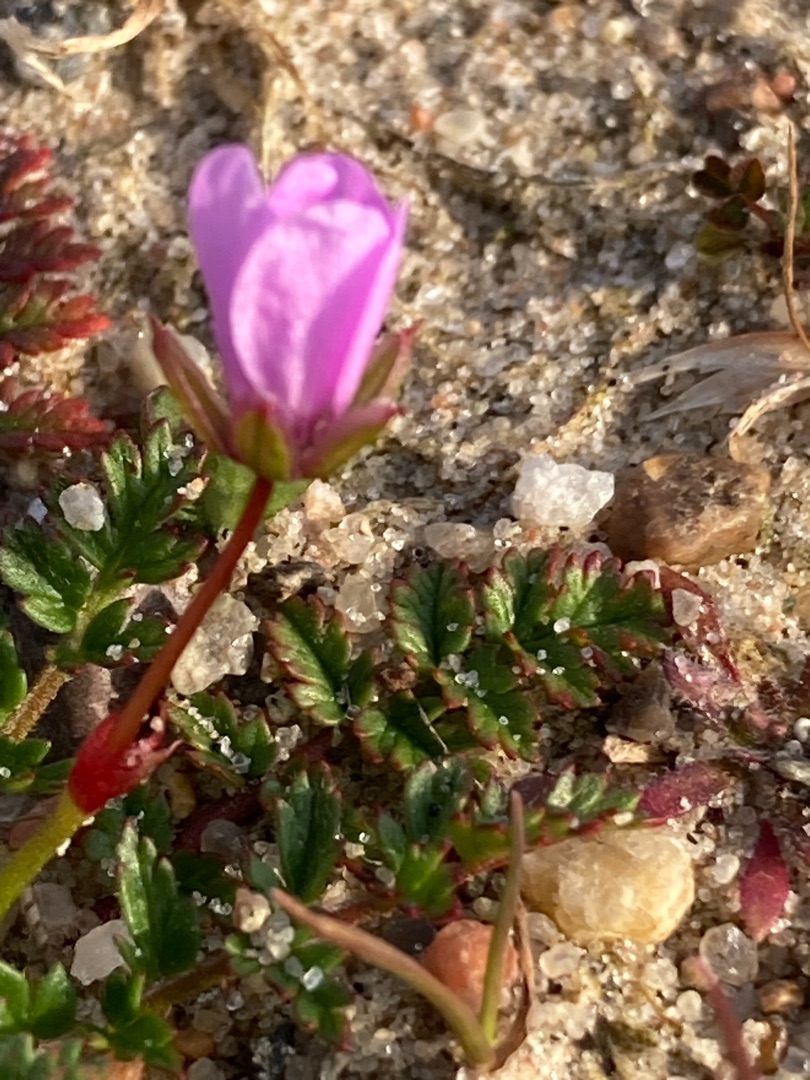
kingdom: Plantae
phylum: Tracheophyta
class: Magnoliopsida
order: Geraniales
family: Geraniaceae
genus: Erodium
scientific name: Erodium cicutarium
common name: Hejrenæb
